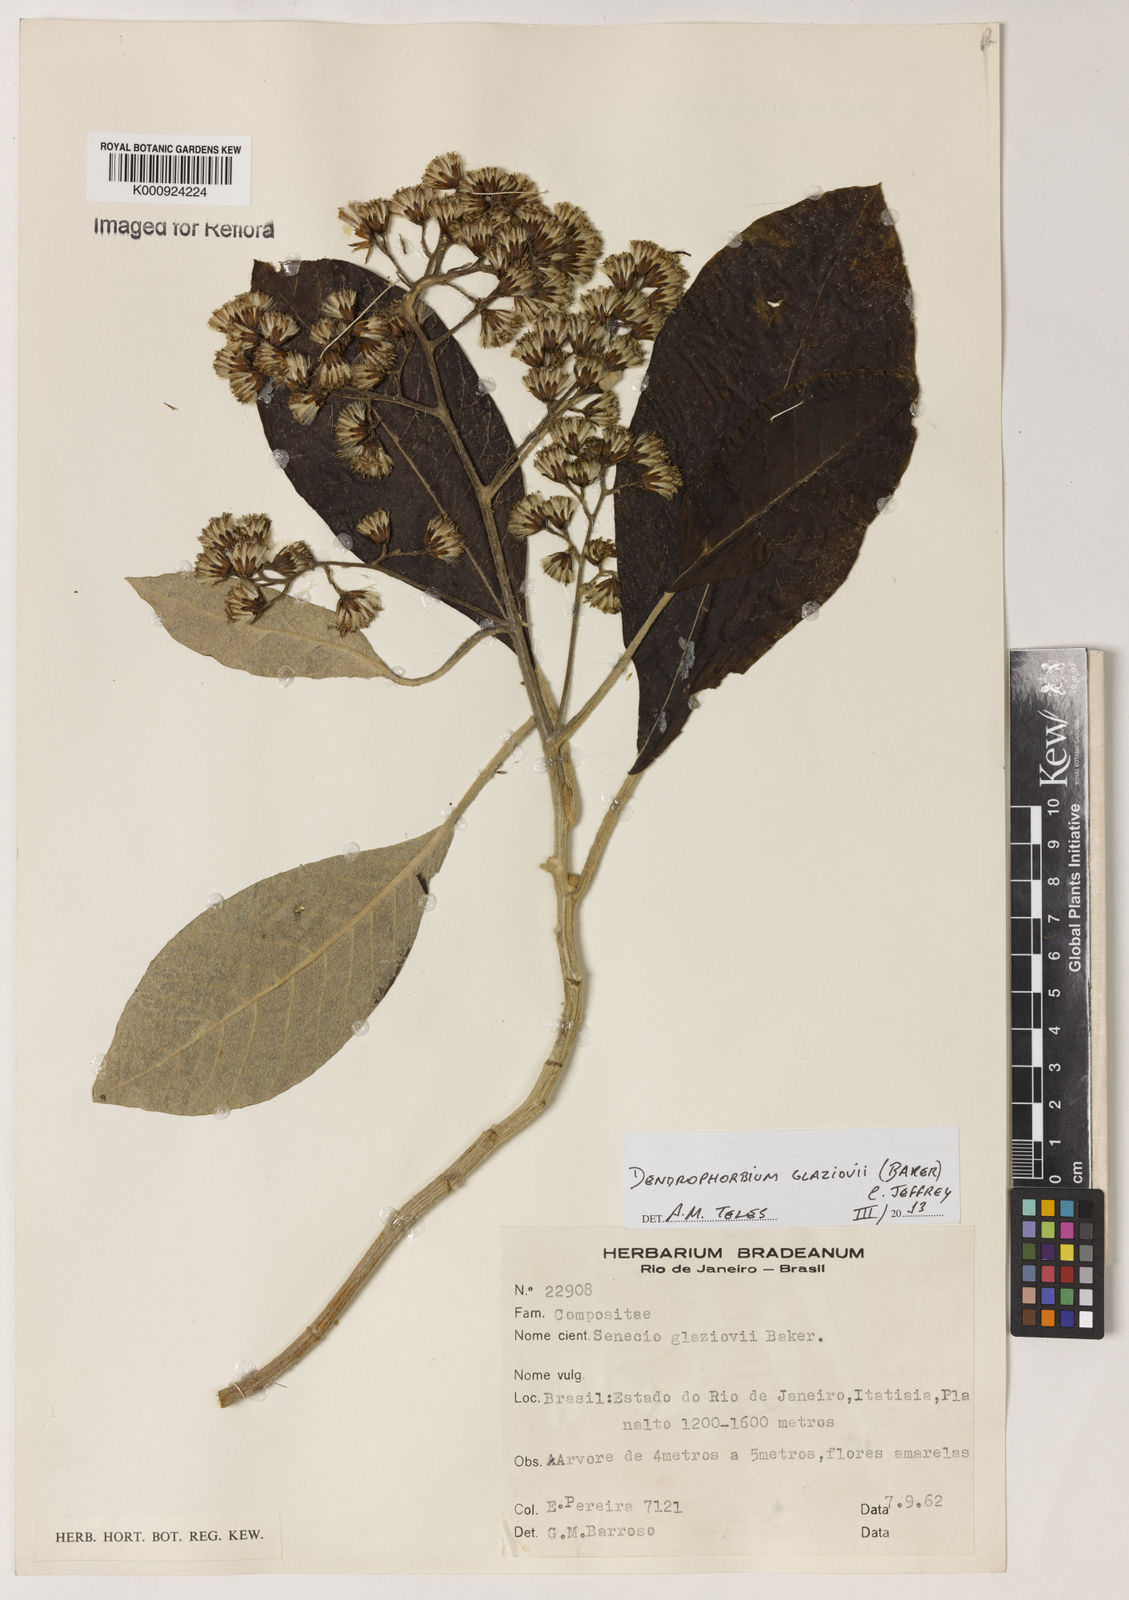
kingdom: Plantae
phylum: Tracheophyta
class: Magnoliopsida
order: Asterales
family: Asteraceae
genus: Dendrophorbium
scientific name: Dendrophorbium glaziovii
